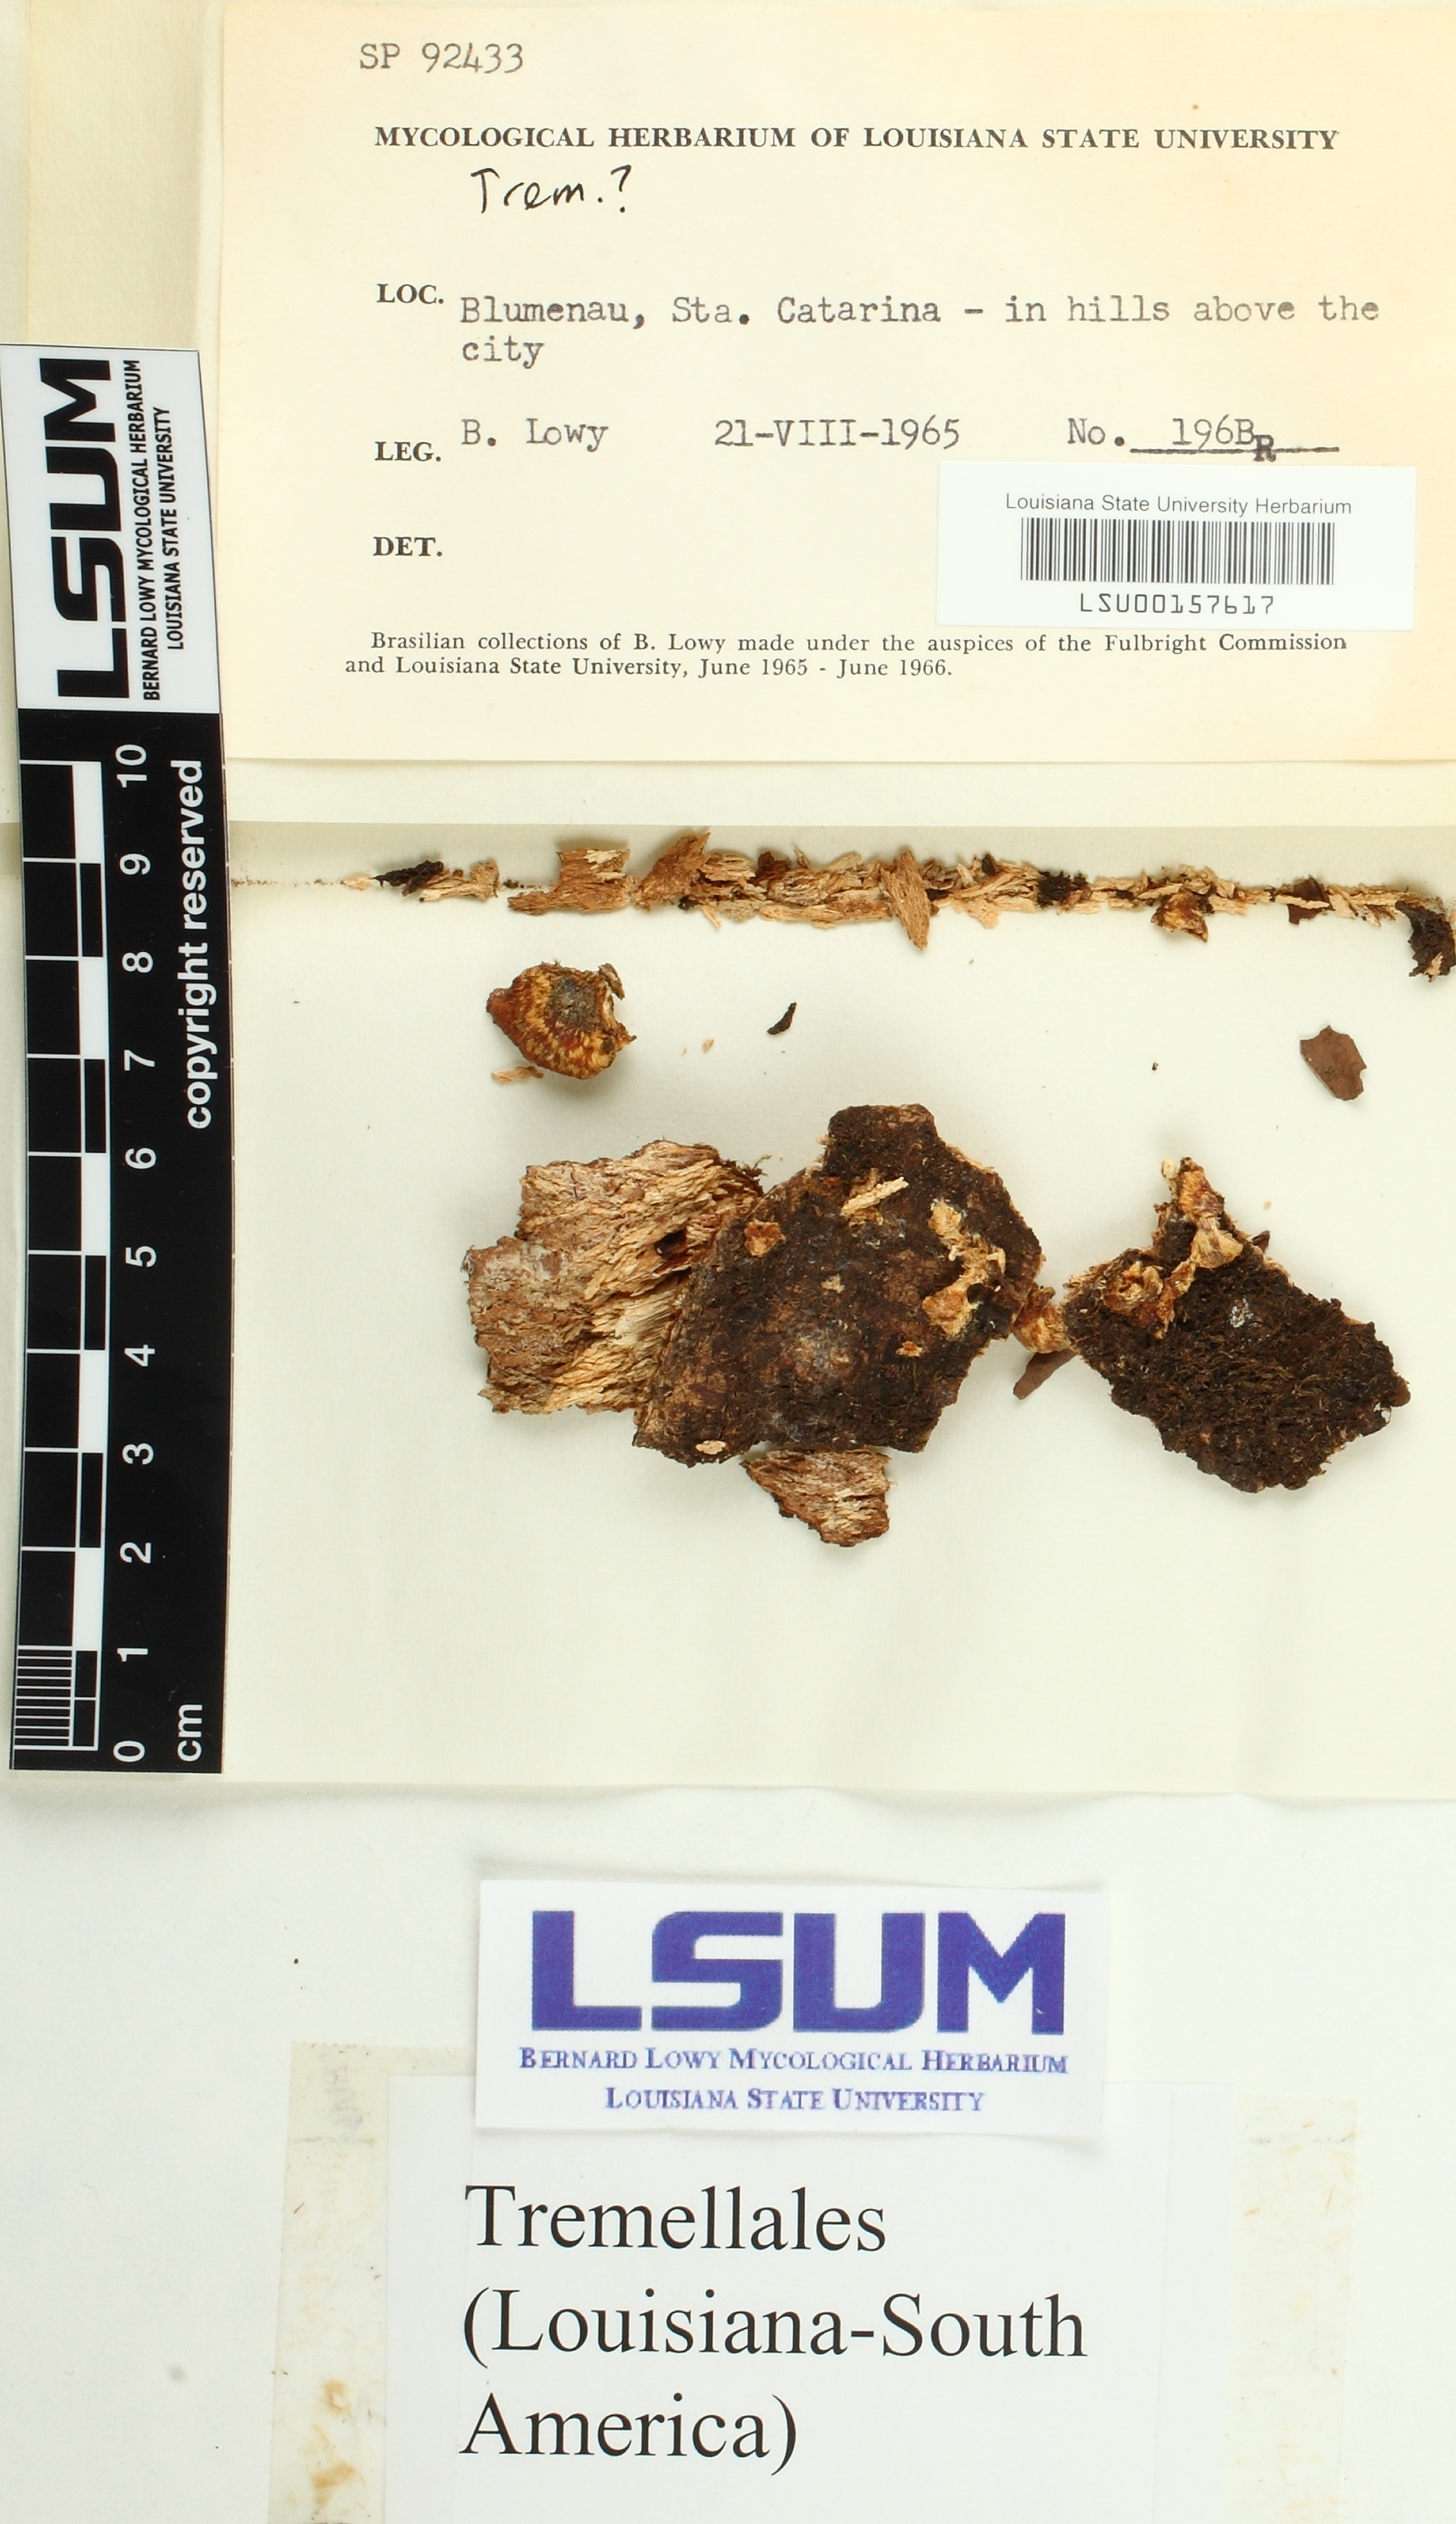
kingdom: Fungi
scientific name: Fungi
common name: Fungi
